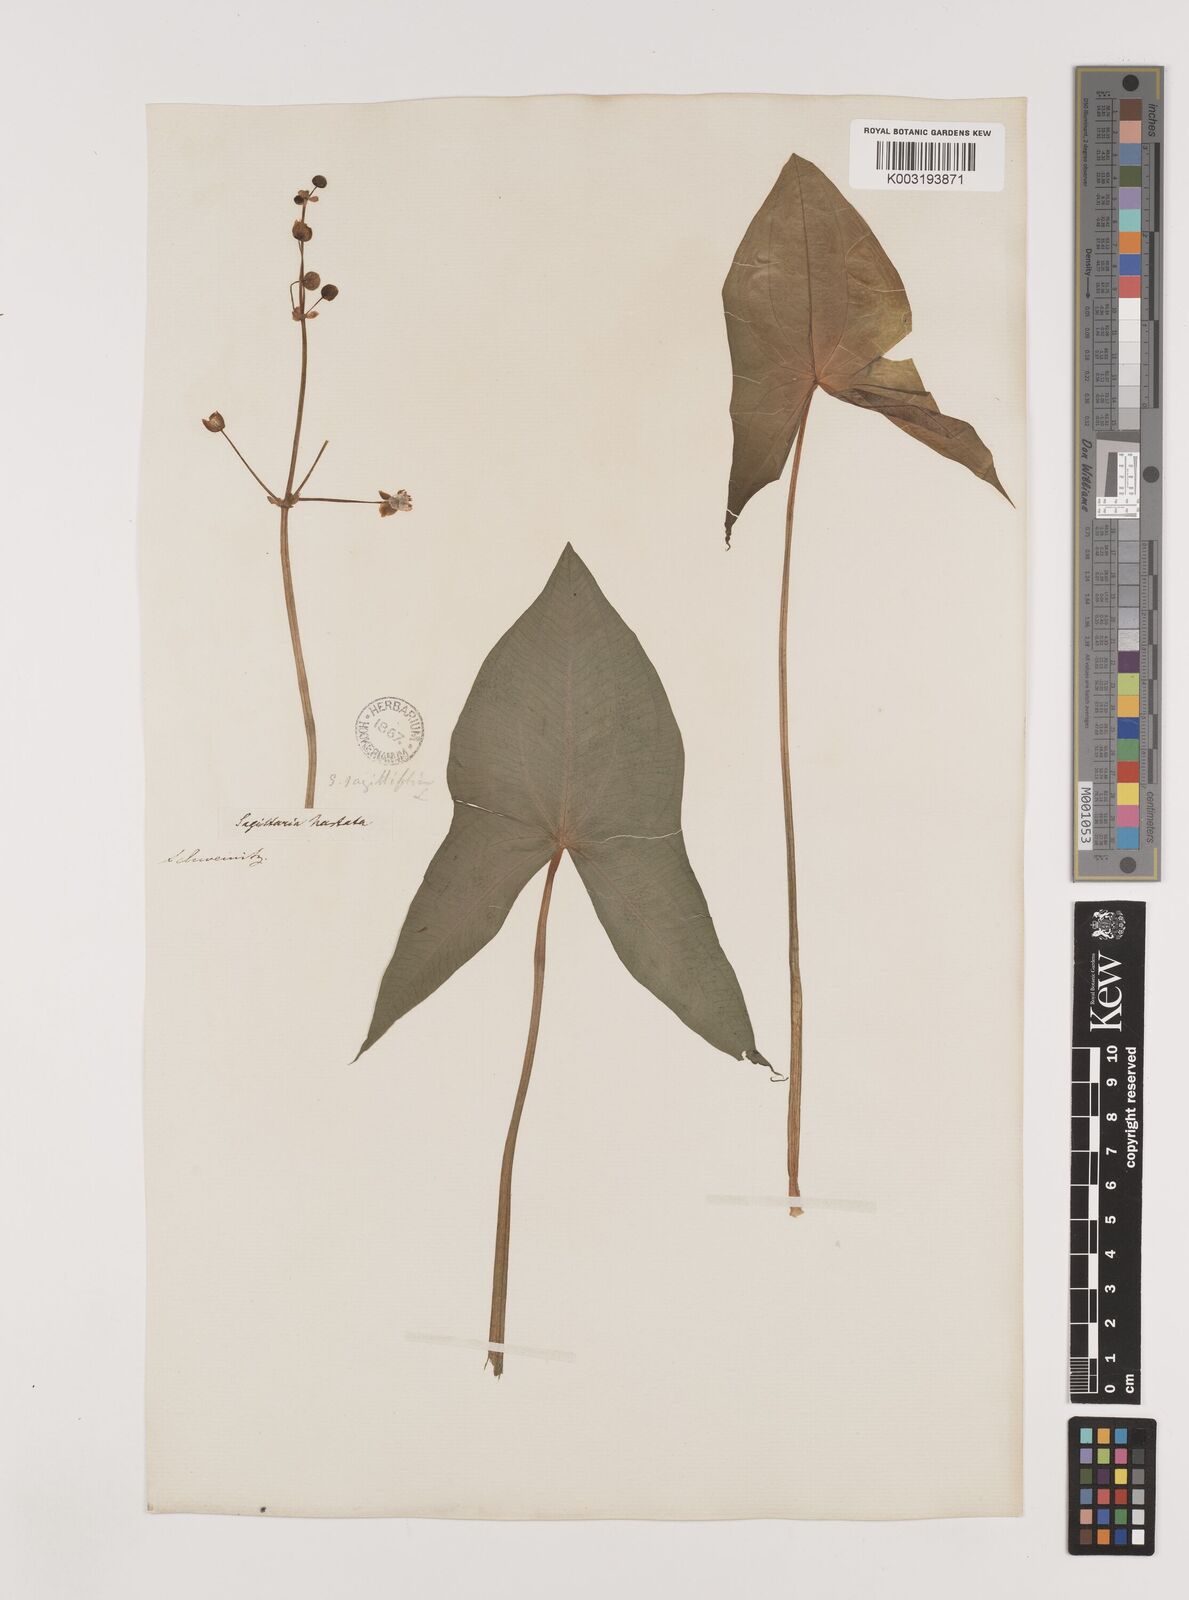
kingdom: Plantae
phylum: Tracheophyta
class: Liliopsida
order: Alismatales
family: Alismataceae
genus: Sagittaria
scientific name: Sagittaria latifolia
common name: Duck-potato
